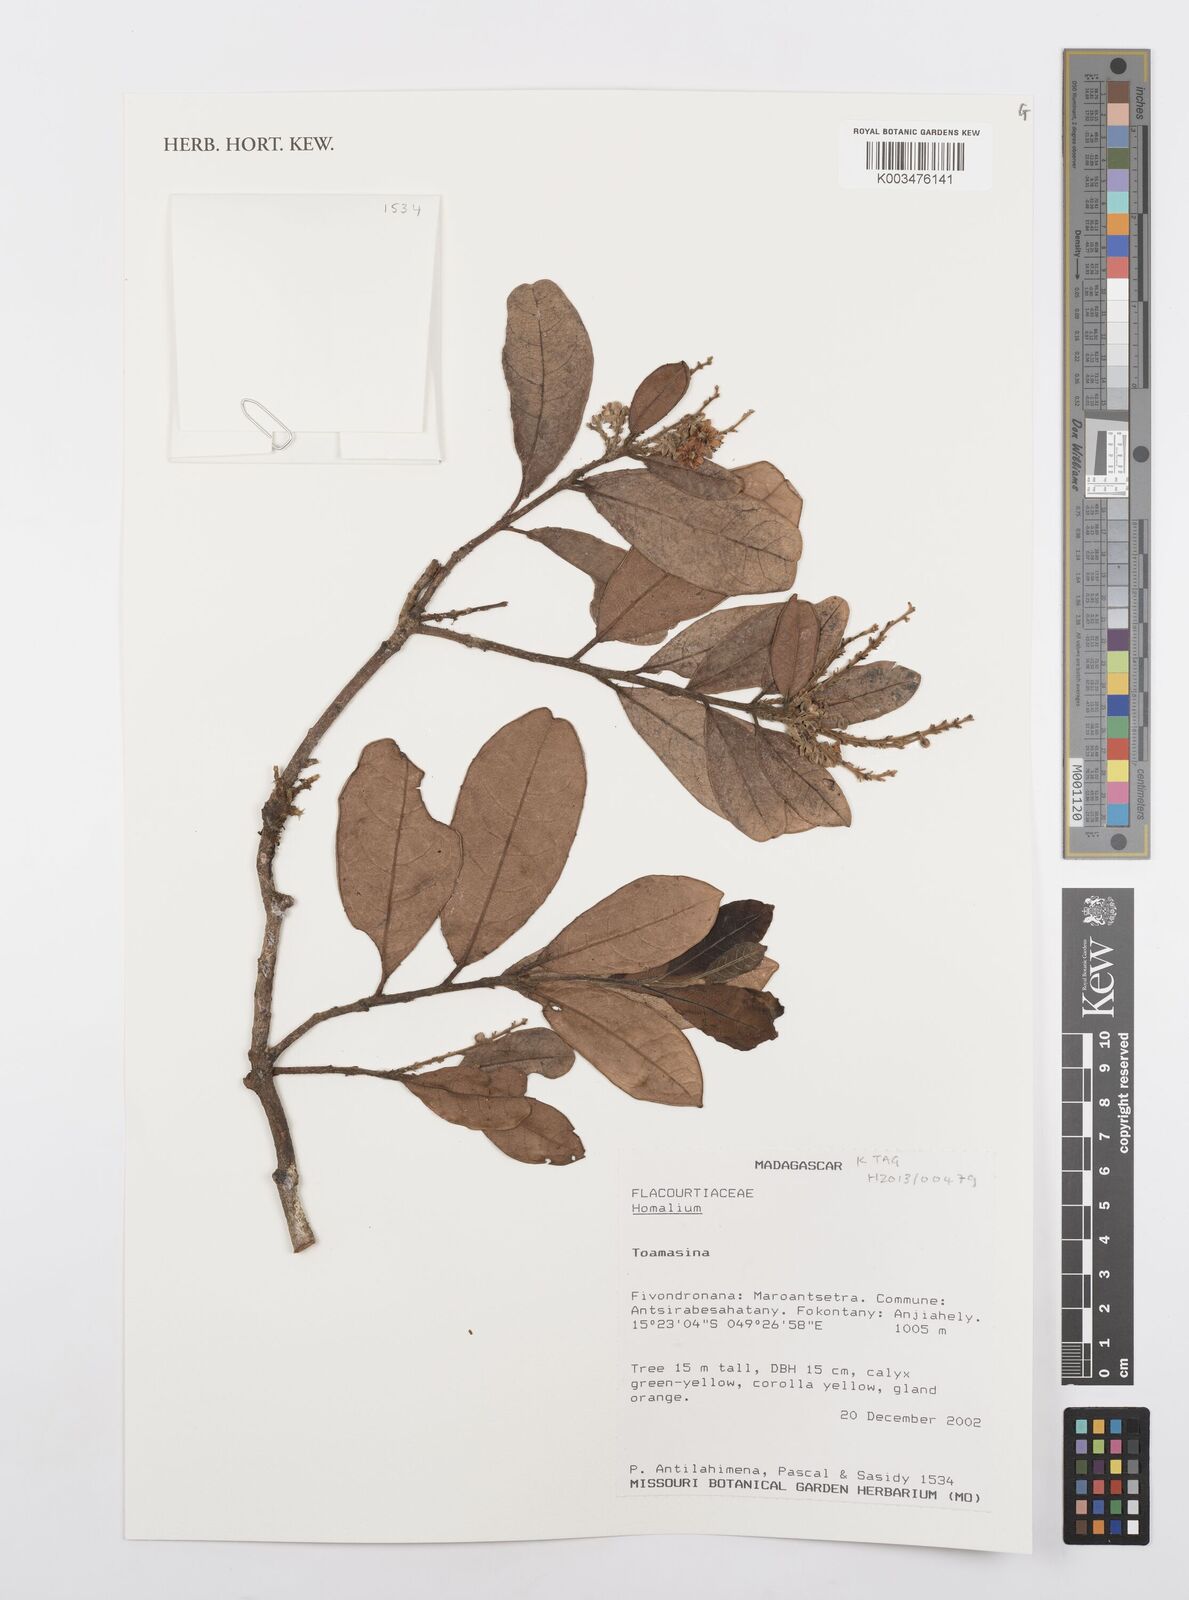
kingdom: Plantae
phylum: Tracheophyta
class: Magnoliopsida
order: Malpighiales
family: Salicaceae
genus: Homalium
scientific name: Homalium
